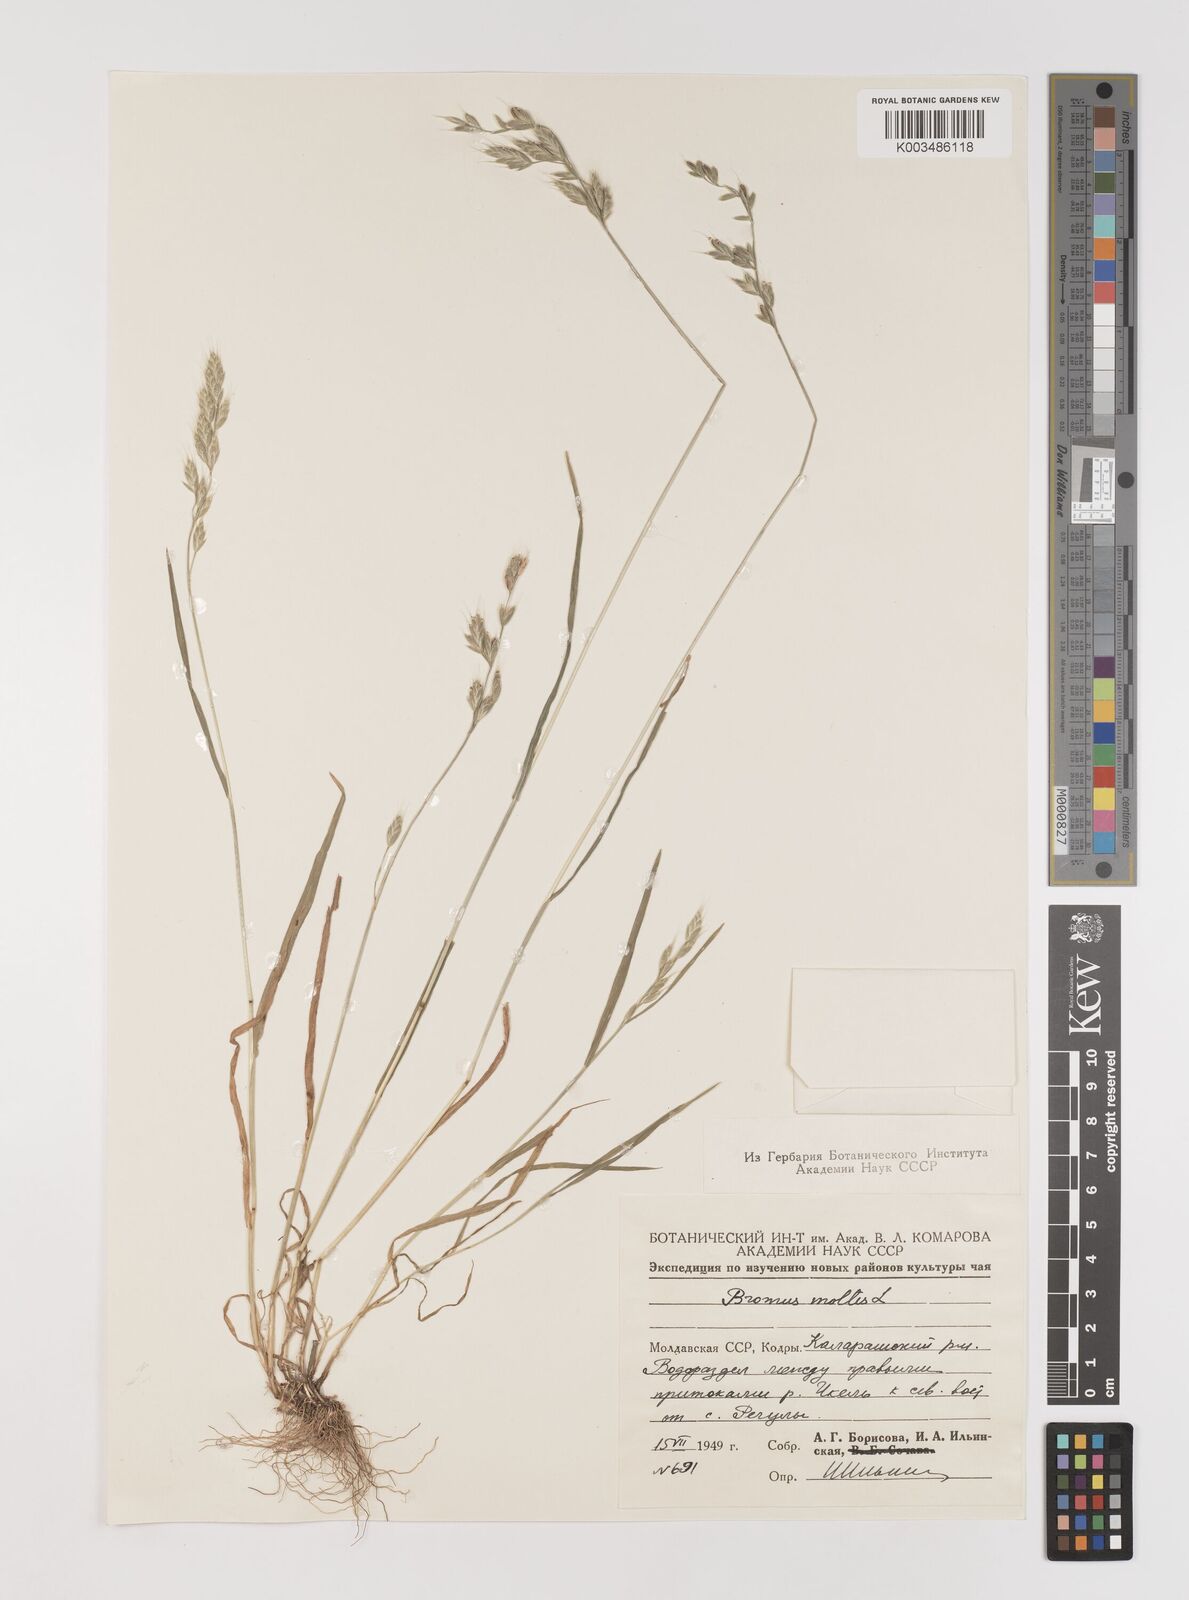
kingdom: Plantae
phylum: Tracheophyta
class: Liliopsida
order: Poales
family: Poaceae
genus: Bromus
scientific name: Bromus hordeaceus
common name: Soft brome
